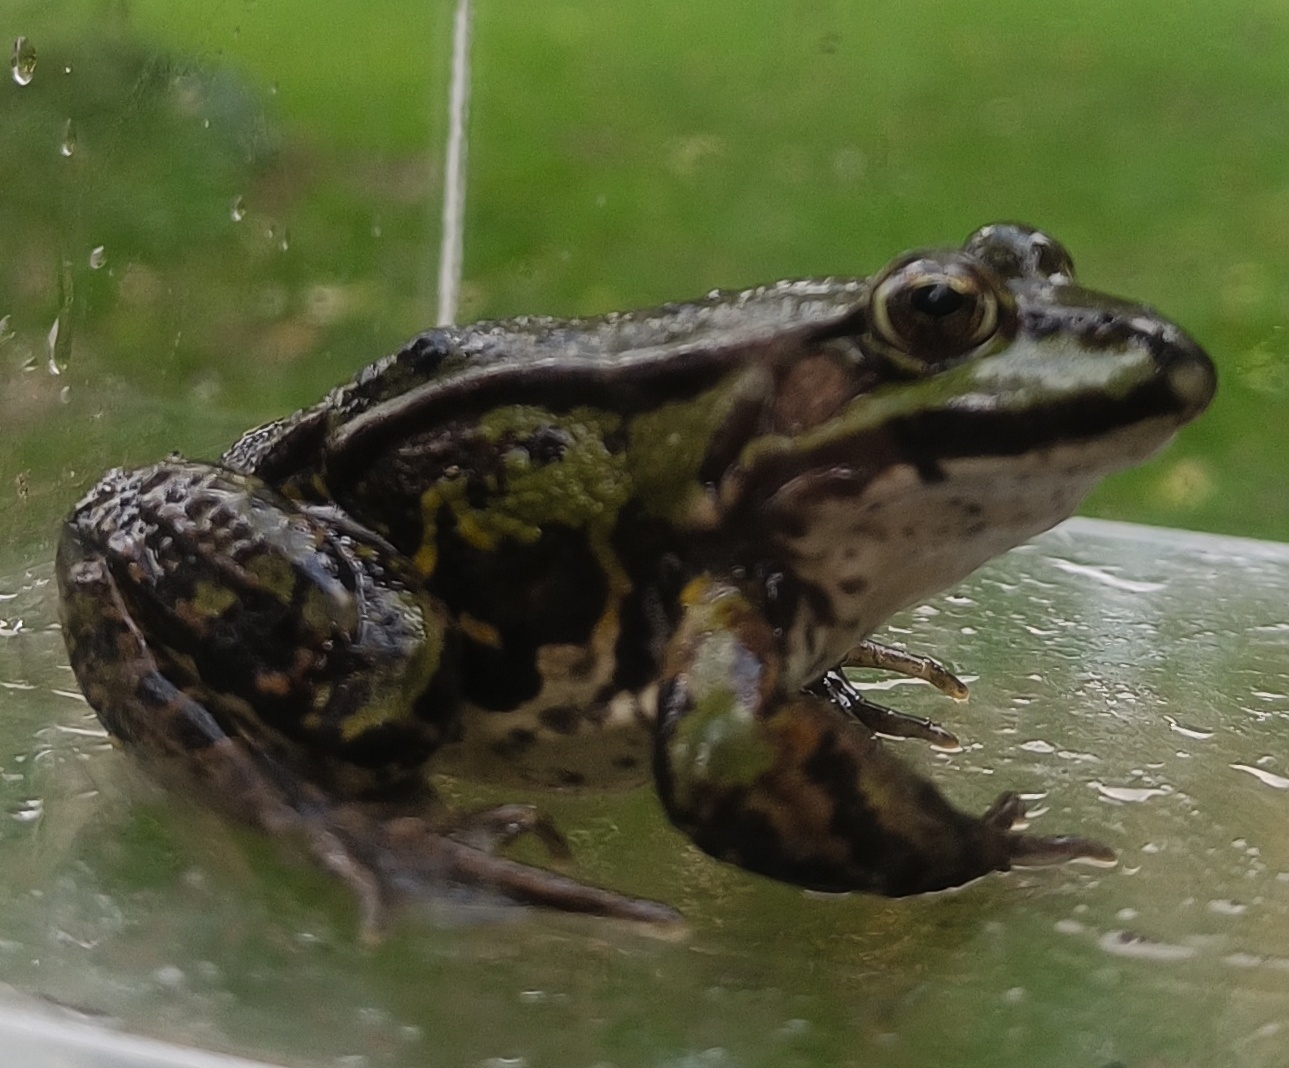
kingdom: Animalia
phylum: Chordata
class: Amphibia
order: Anura
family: Ranidae
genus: Pelophylax
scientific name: Pelophylax lessonae
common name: Grøn frø
